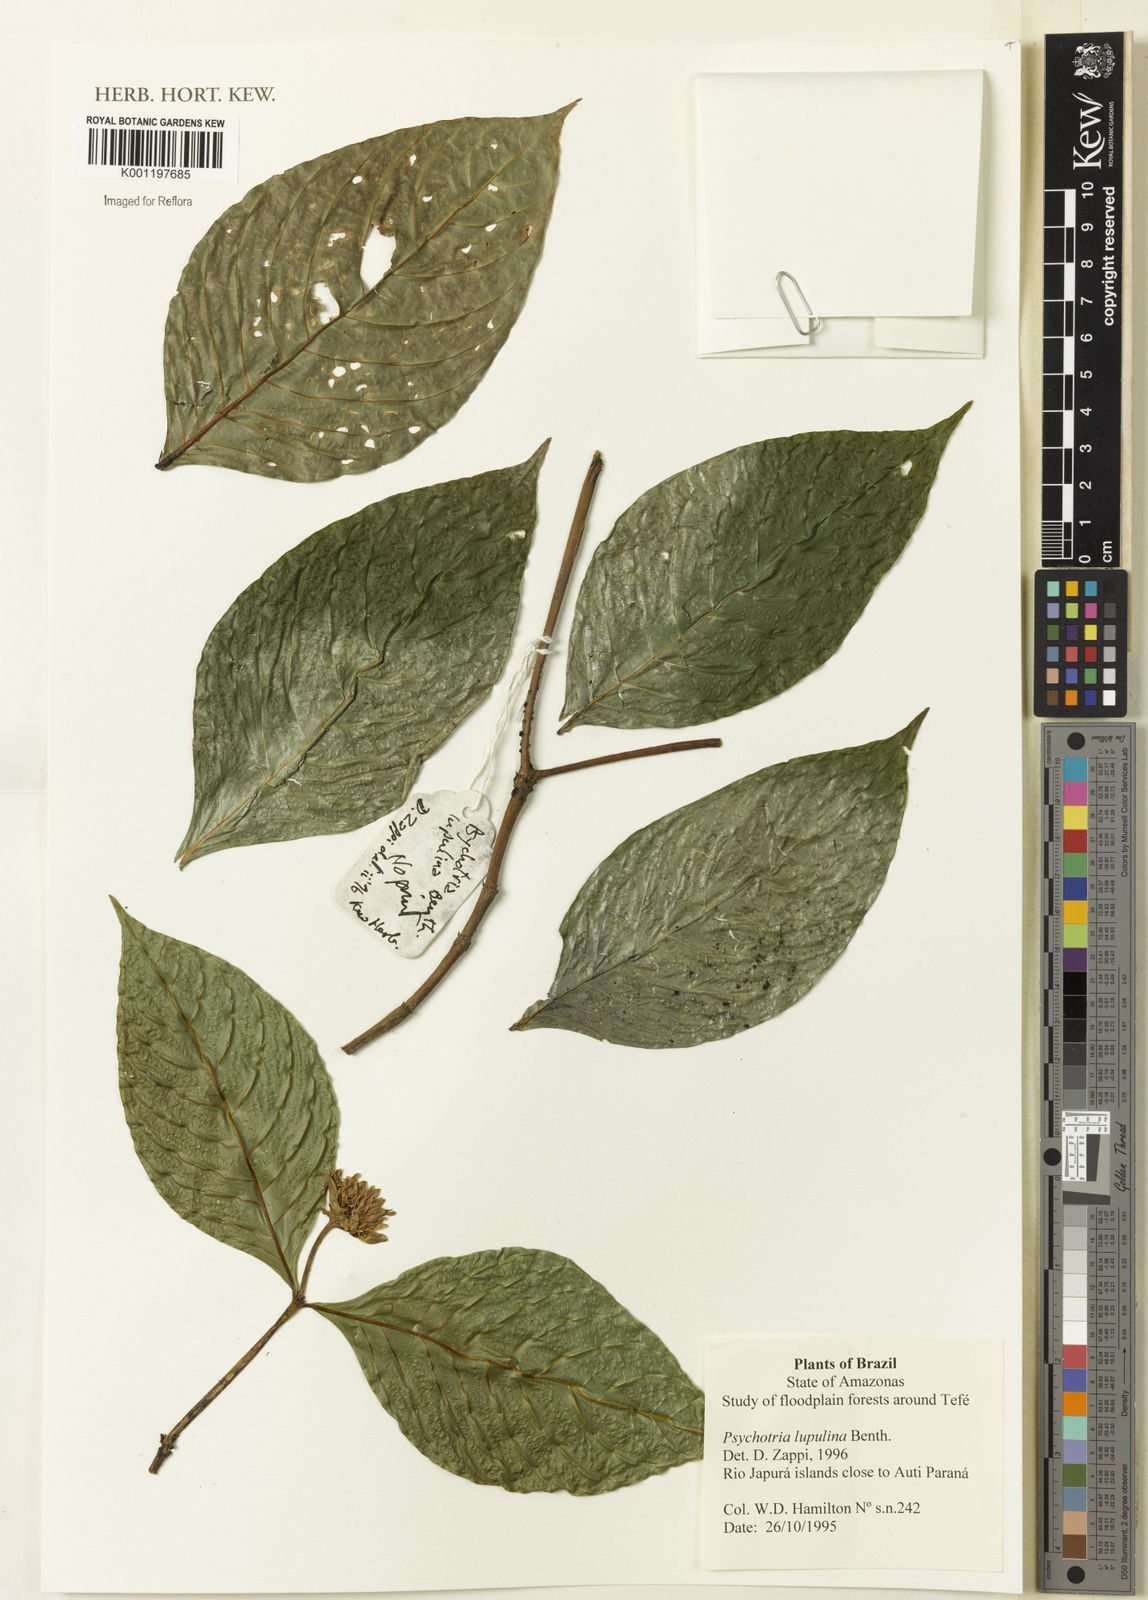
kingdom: Plantae
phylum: Tracheophyta
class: Magnoliopsida
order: Gentianales
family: Rubiaceae
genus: Palicourea
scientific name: Palicourea justiciifolia
